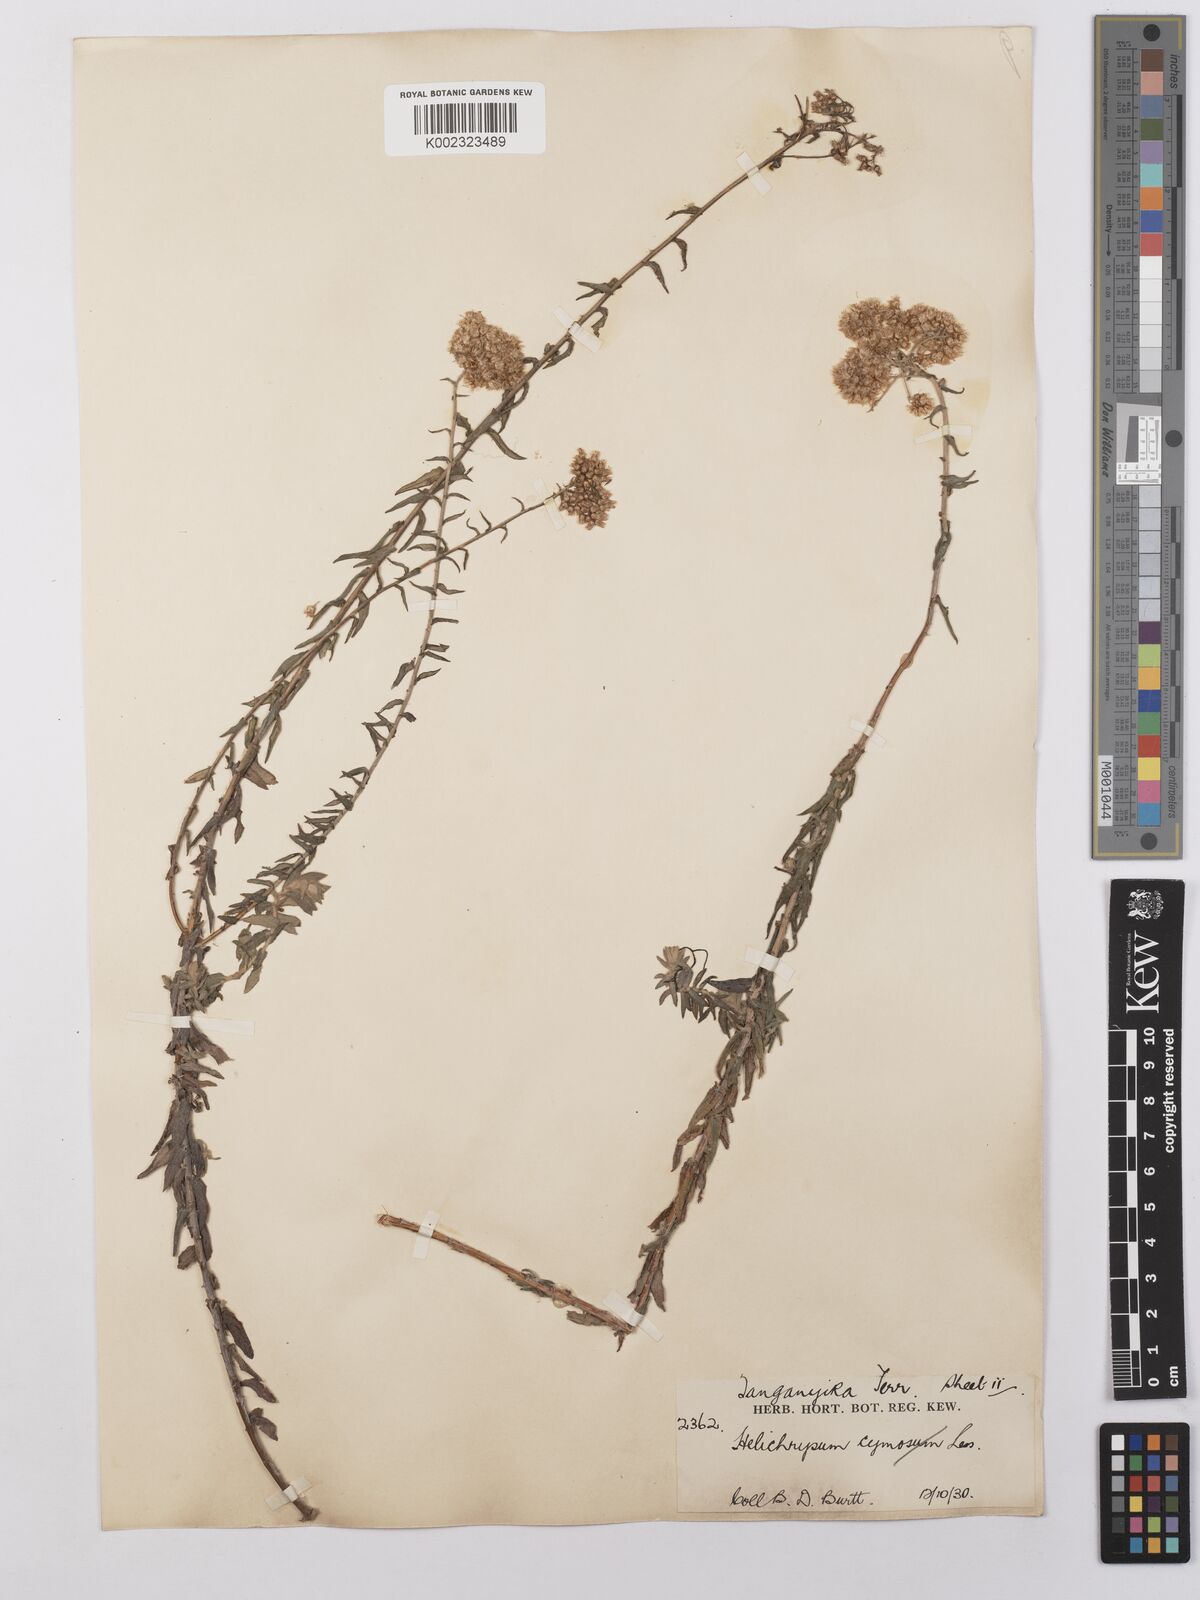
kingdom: Plantae
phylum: Tracheophyta
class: Magnoliopsida
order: Asterales
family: Asteraceae
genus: Helichrysum
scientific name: Helichrysum forskahlii
